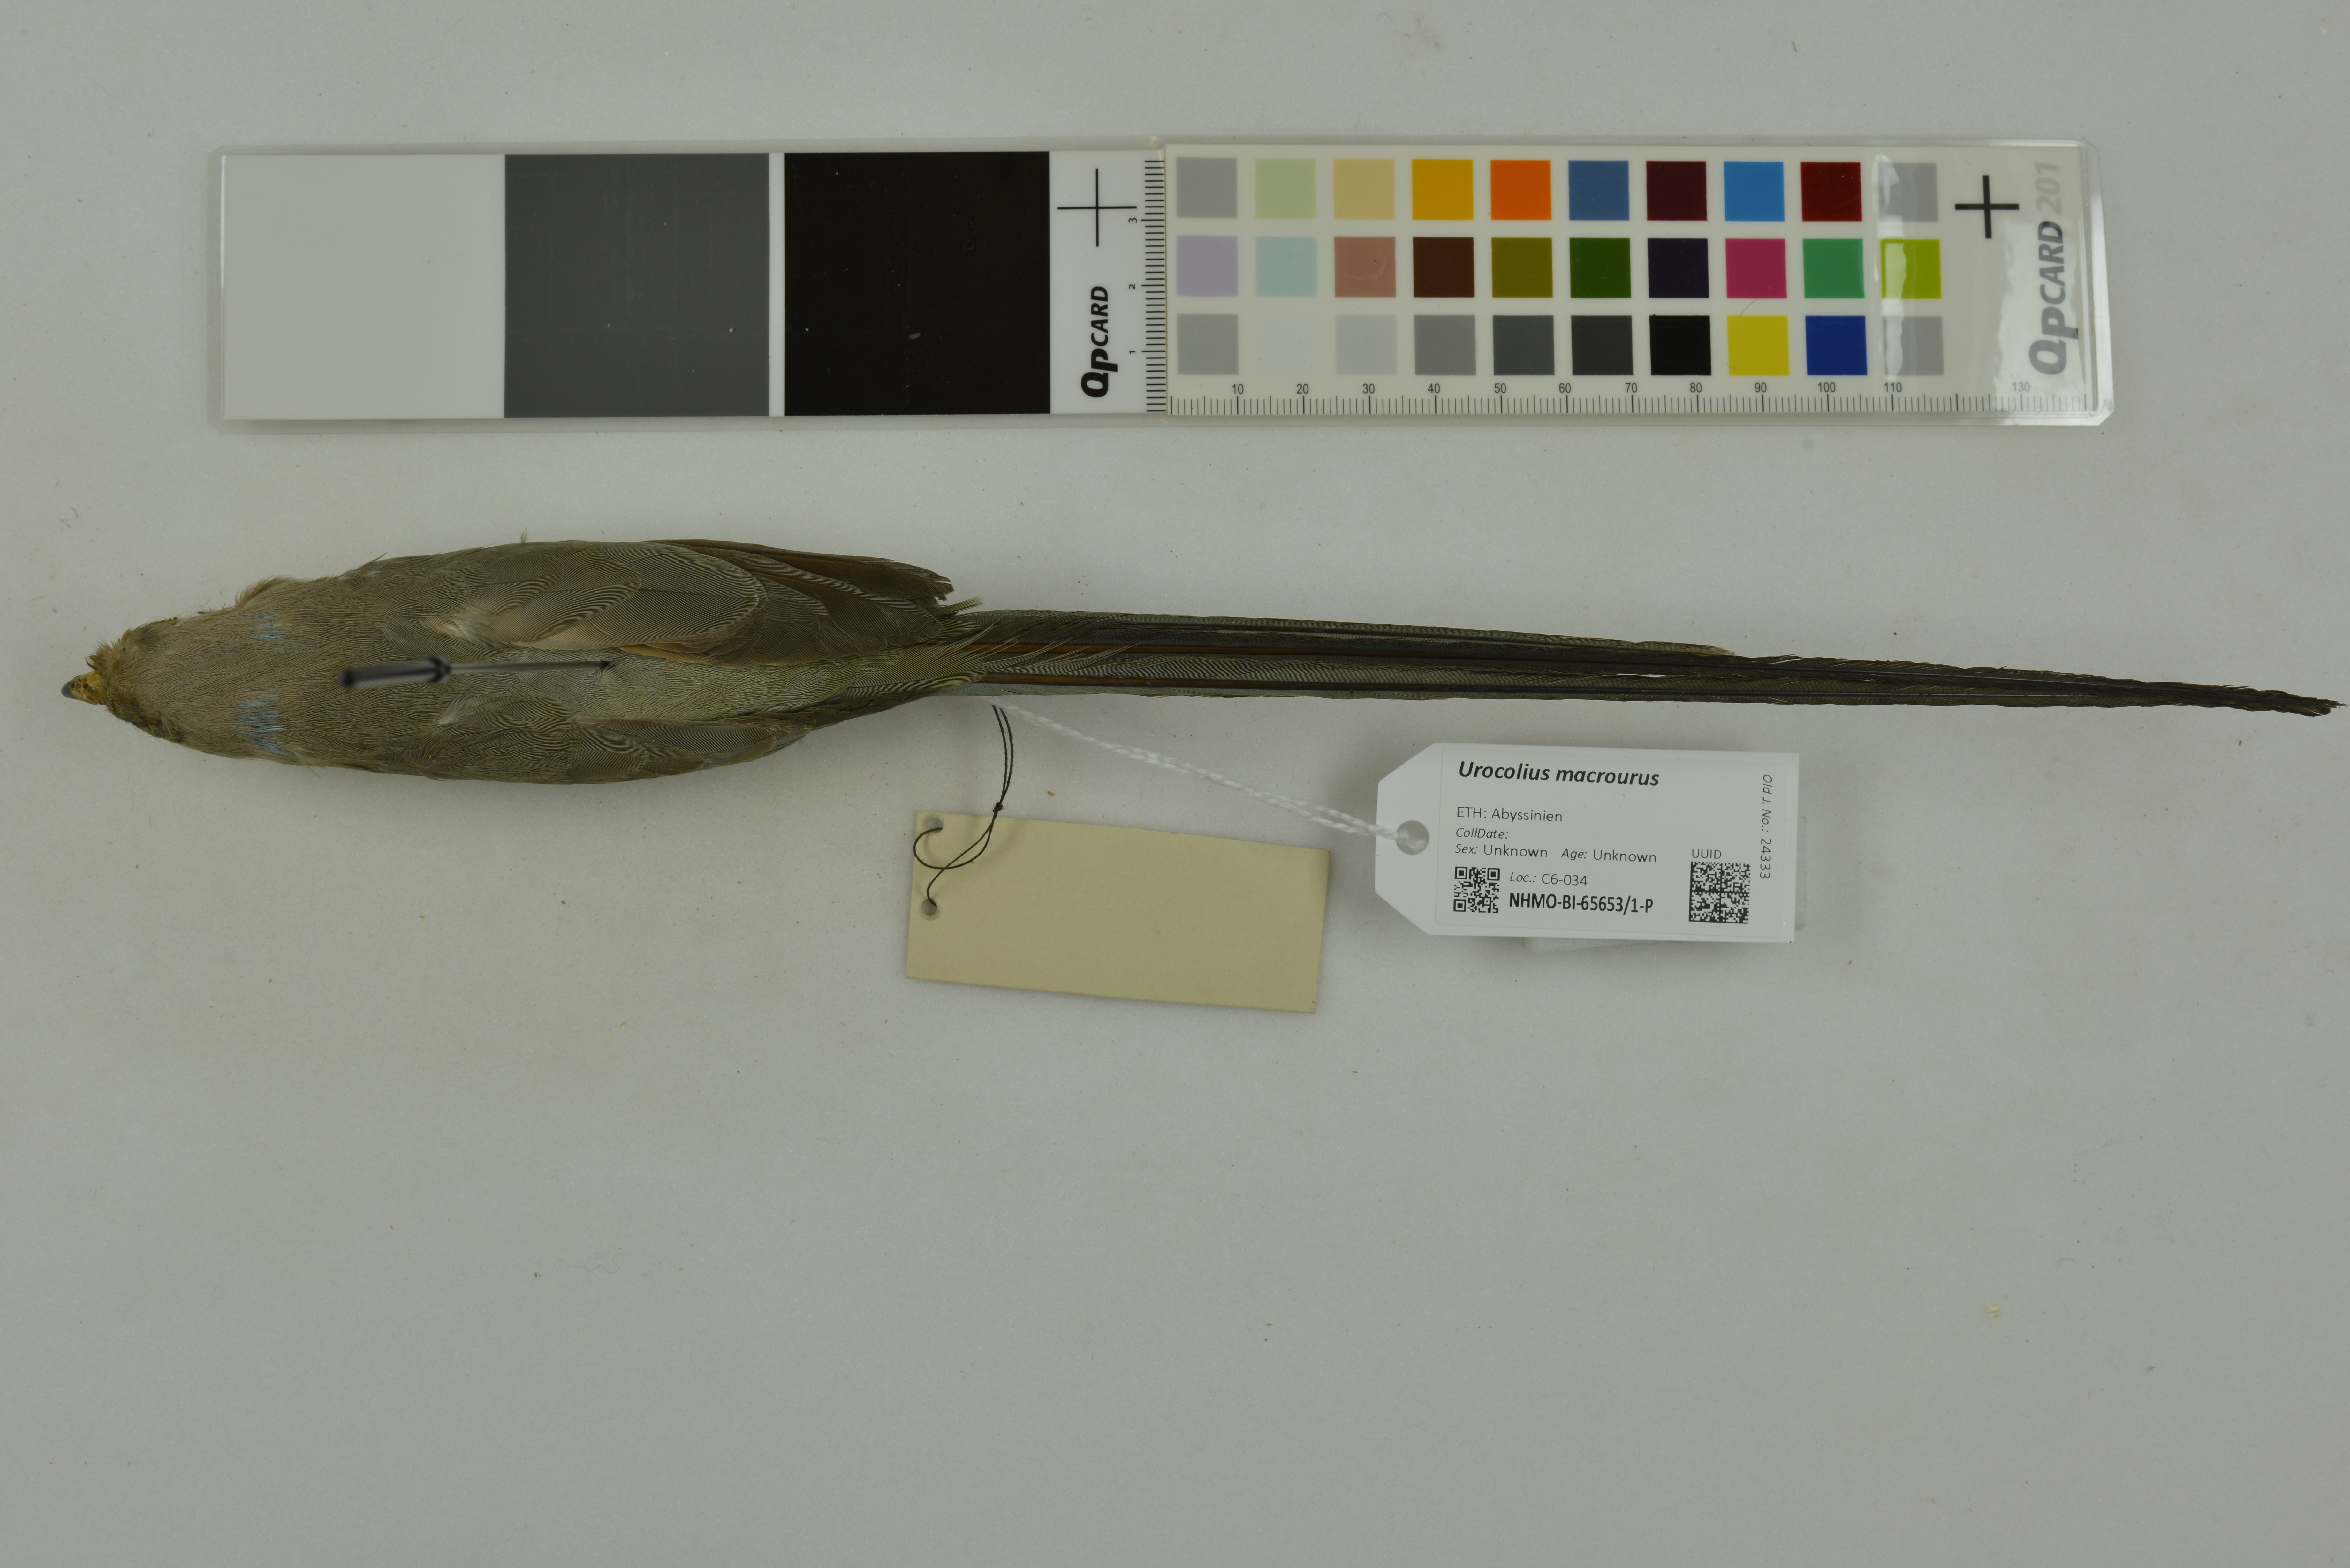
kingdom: Animalia
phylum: Chordata
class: Aves
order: Coliiformes
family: Coliidae
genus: Urocolius
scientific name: Urocolius macrourus
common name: Blue-naped mousebird
